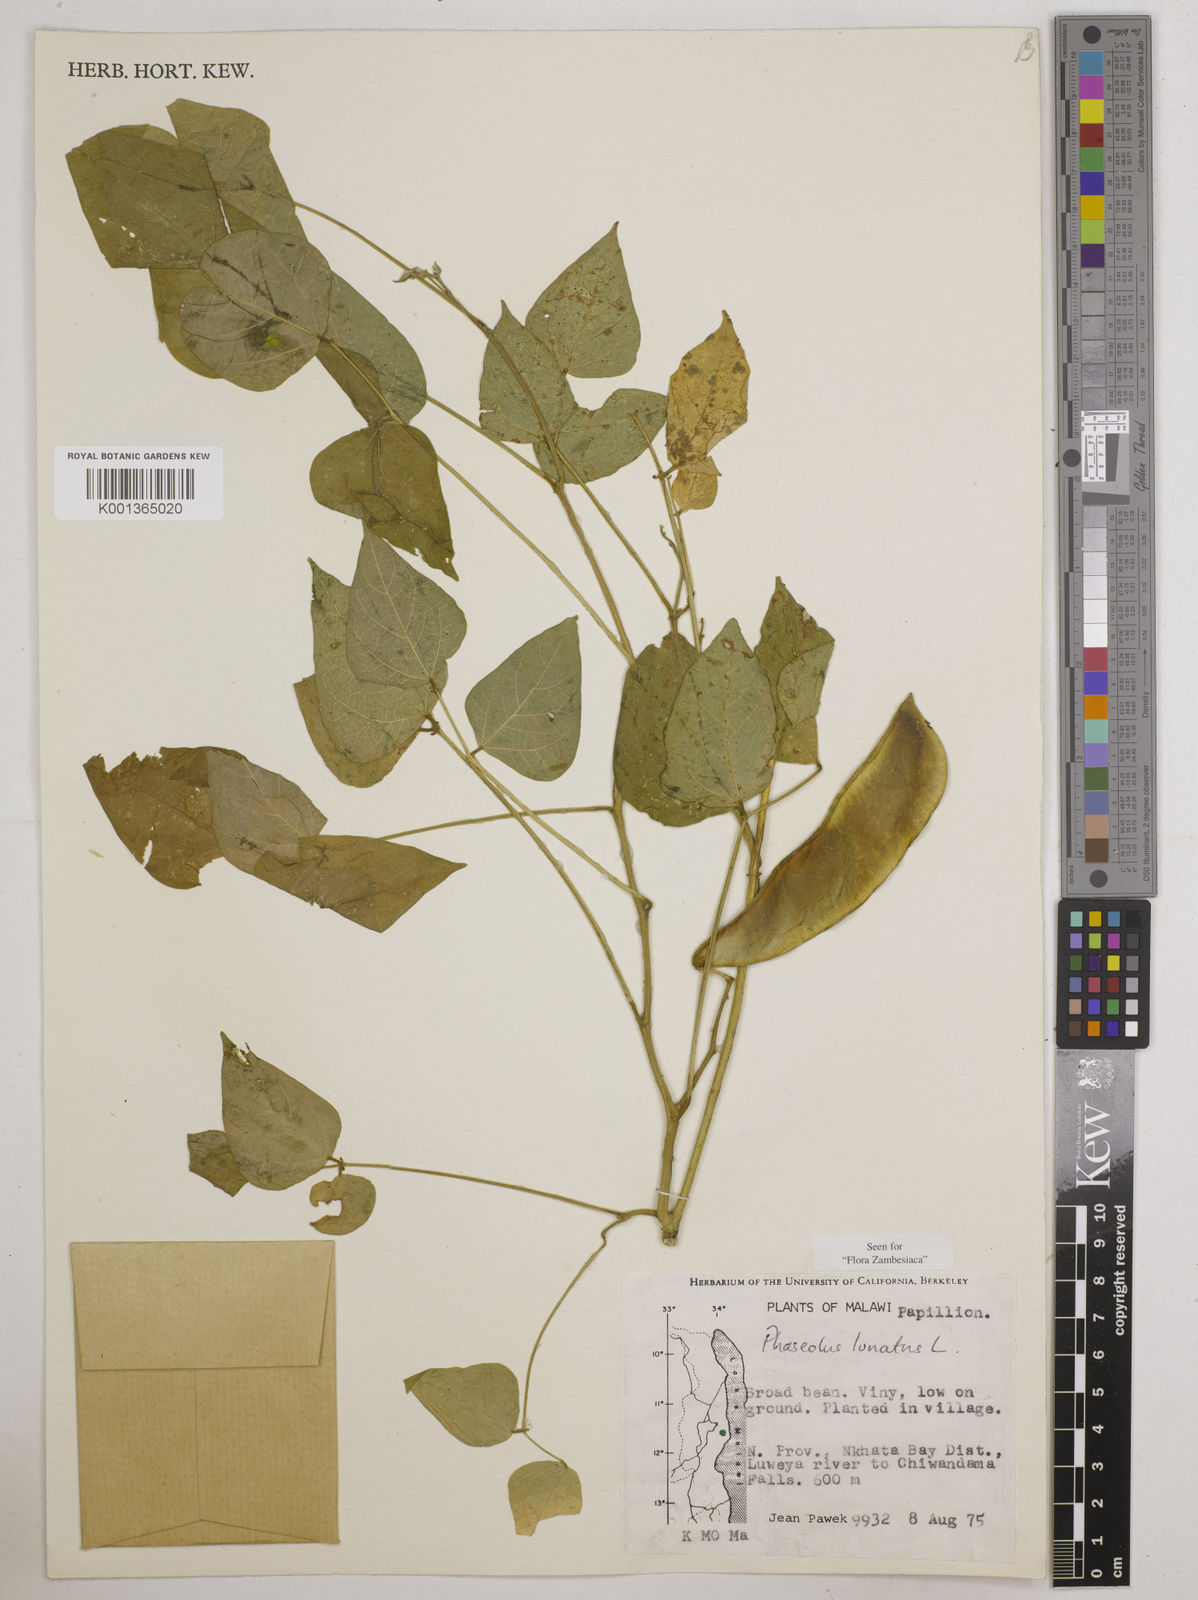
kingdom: Plantae
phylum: Tracheophyta
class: Magnoliopsida
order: Fabales
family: Fabaceae
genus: Phaseolus
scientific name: Phaseolus lunatus
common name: Sieva bean
